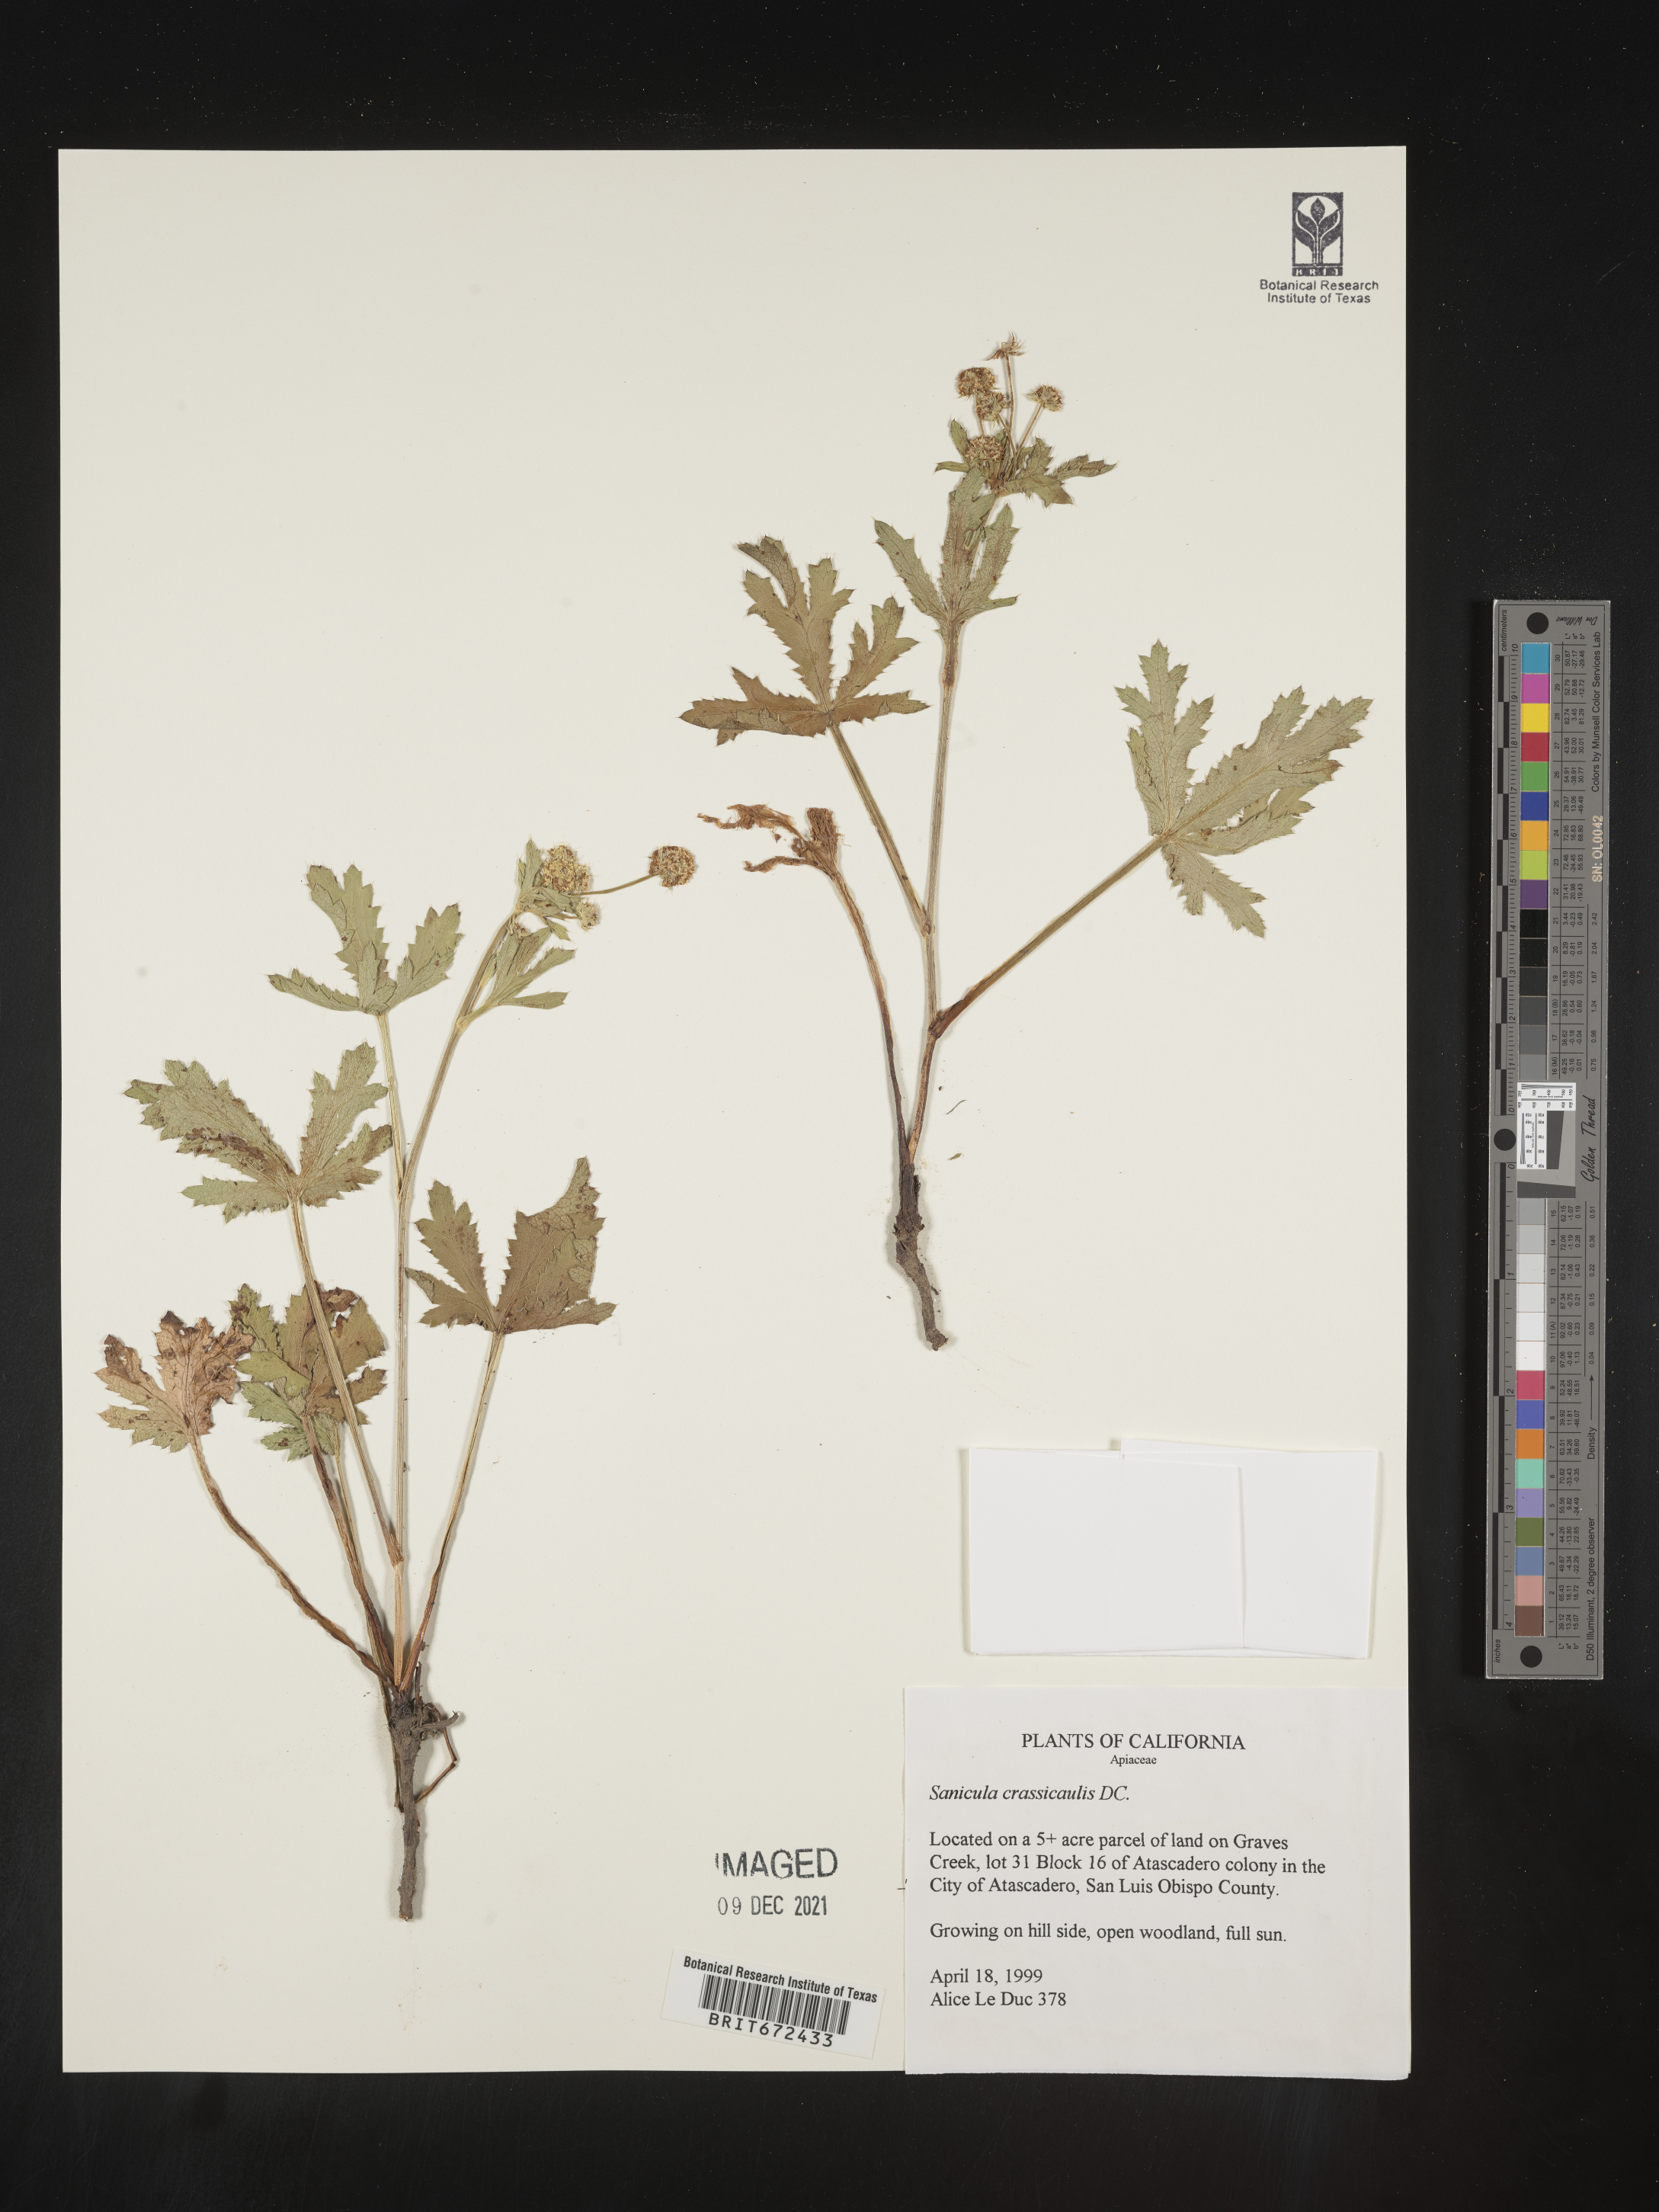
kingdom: Plantae
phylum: Tracheophyta
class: Magnoliopsida
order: Apiales
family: Apiaceae
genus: Sanicula
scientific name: Sanicula crassicaulis
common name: Western snakeroot
